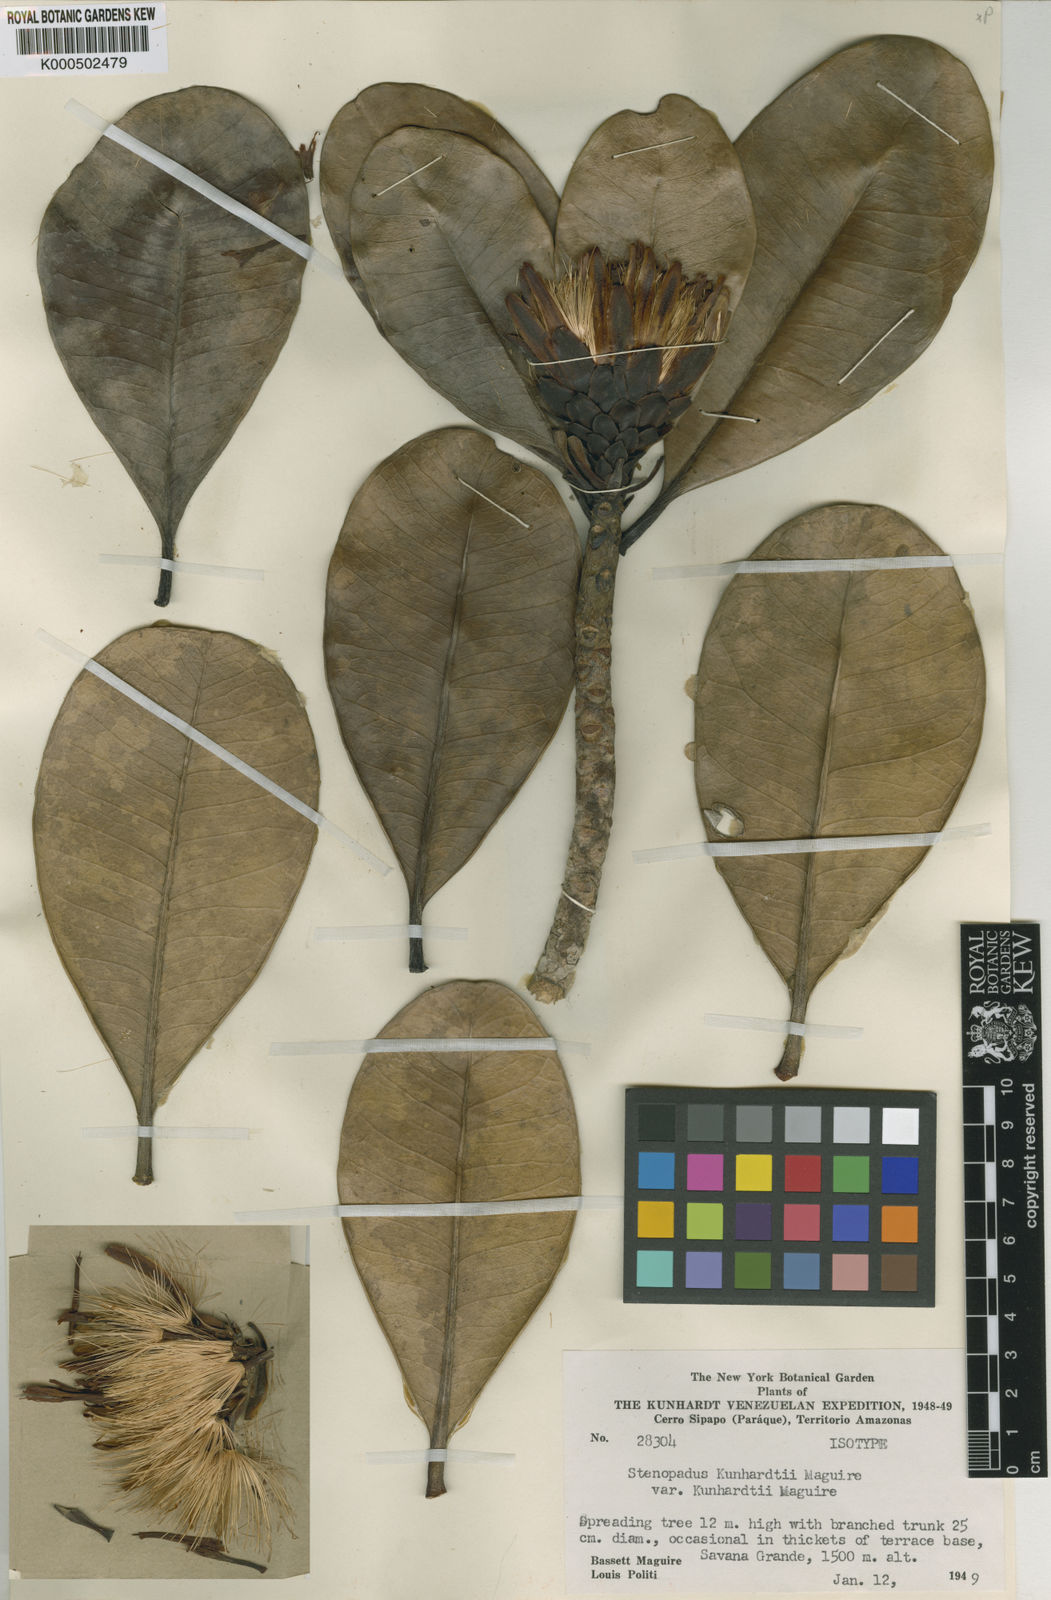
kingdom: Plantae
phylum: Tracheophyta
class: Magnoliopsida
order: Asterales
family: Asteraceae
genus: Stenopadus
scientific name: Stenopadus kunhardtii
